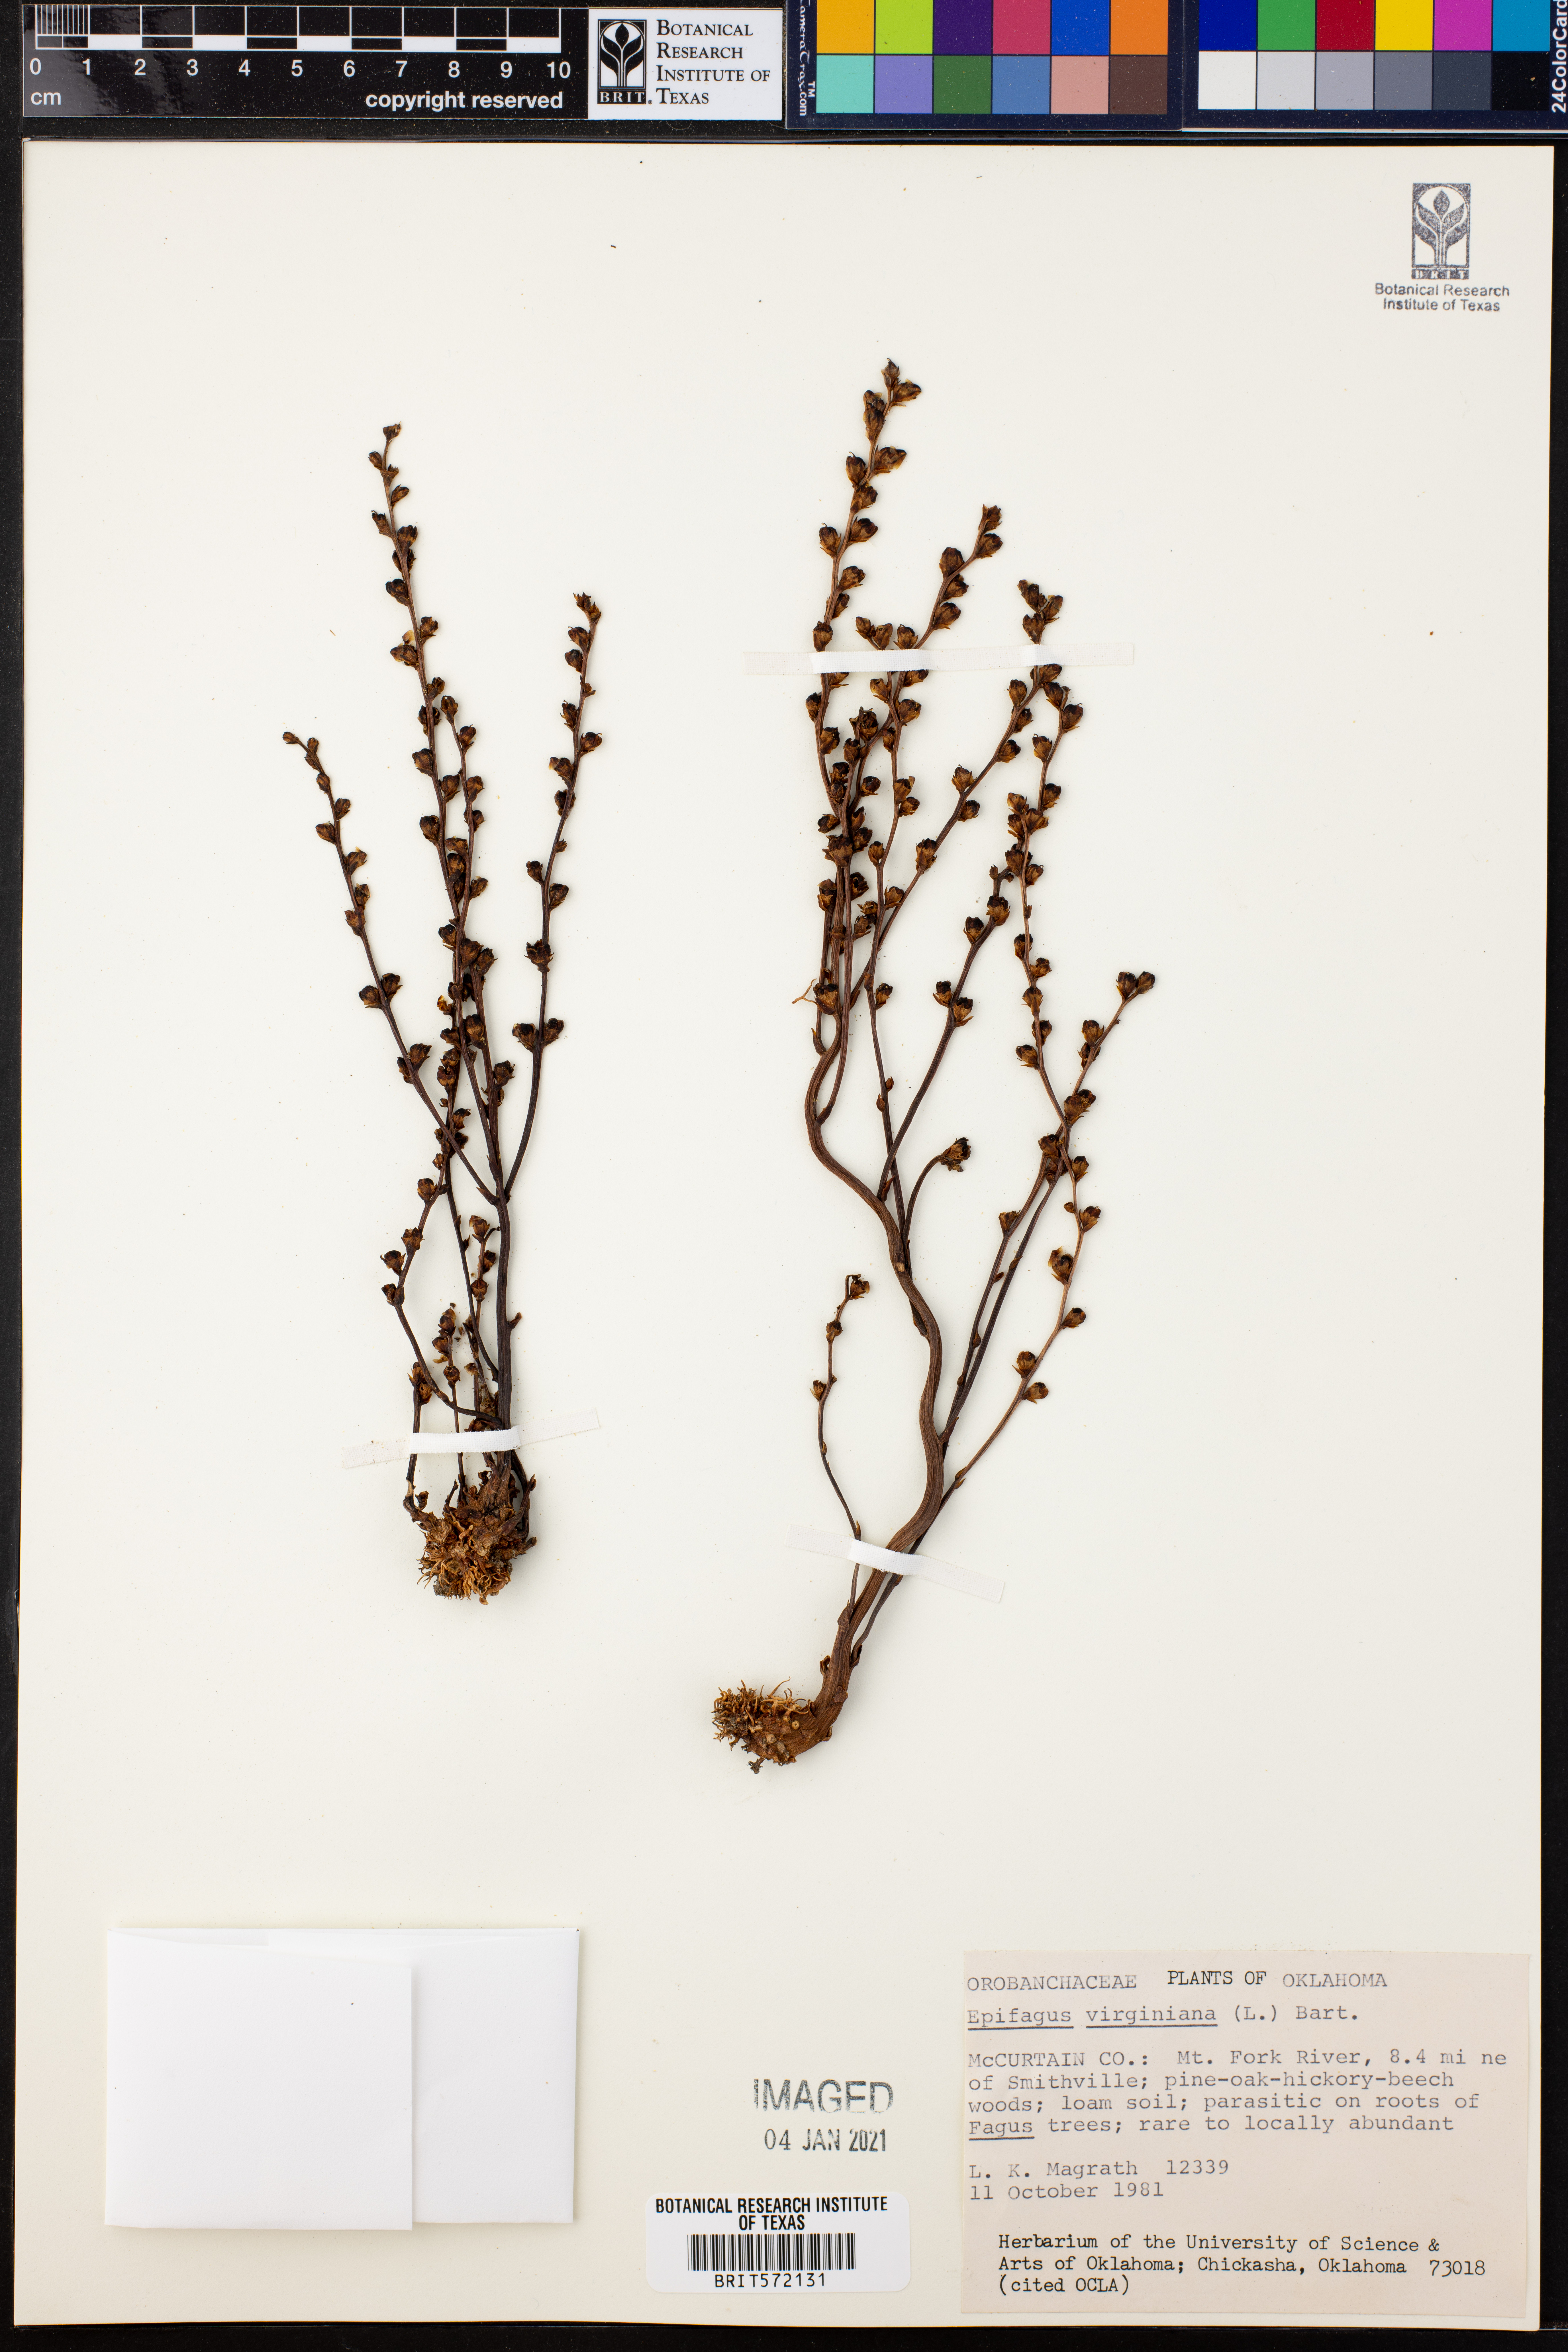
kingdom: Plantae
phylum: Tracheophyta
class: Magnoliopsida
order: Lamiales
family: Orobanchaceae
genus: Epifagus
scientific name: Epifagus virginiana
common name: Beechdrops
